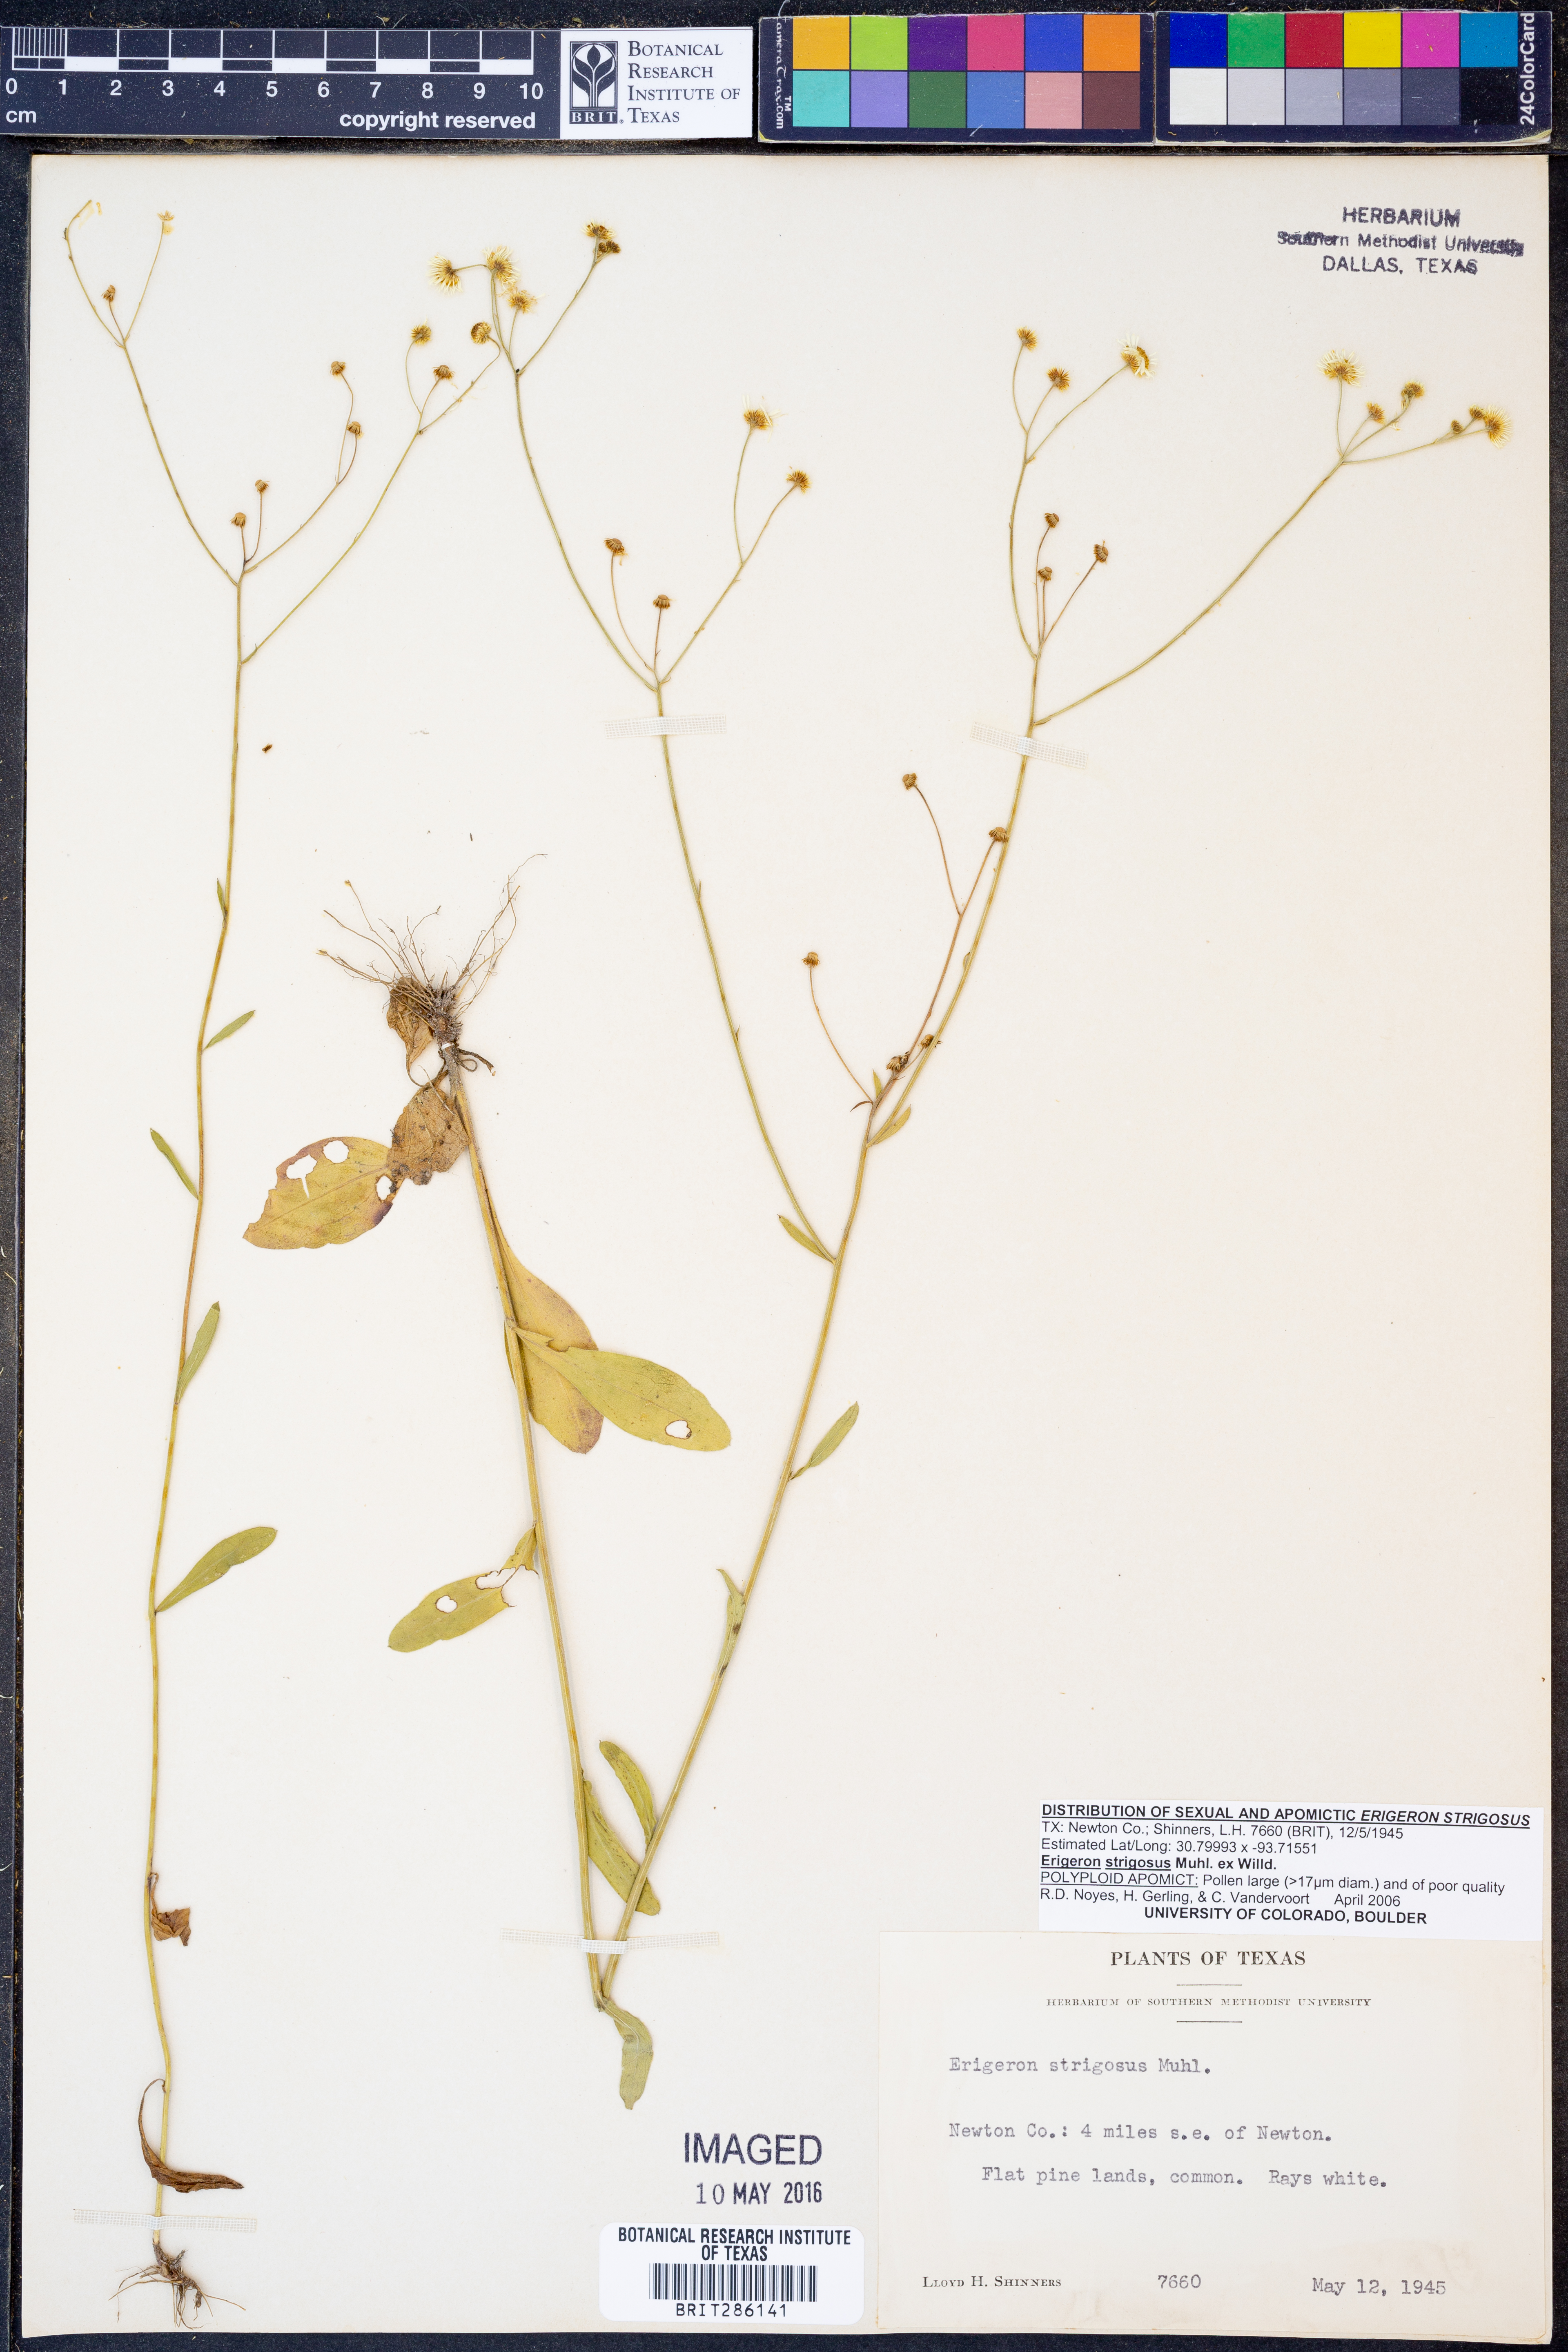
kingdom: Plantae
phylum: Tracheophyta
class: Magnoliopsida
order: Asterales
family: Asteraceae
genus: Erigeron
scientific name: Erigeron strigosus
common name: Common eastern fleabane
